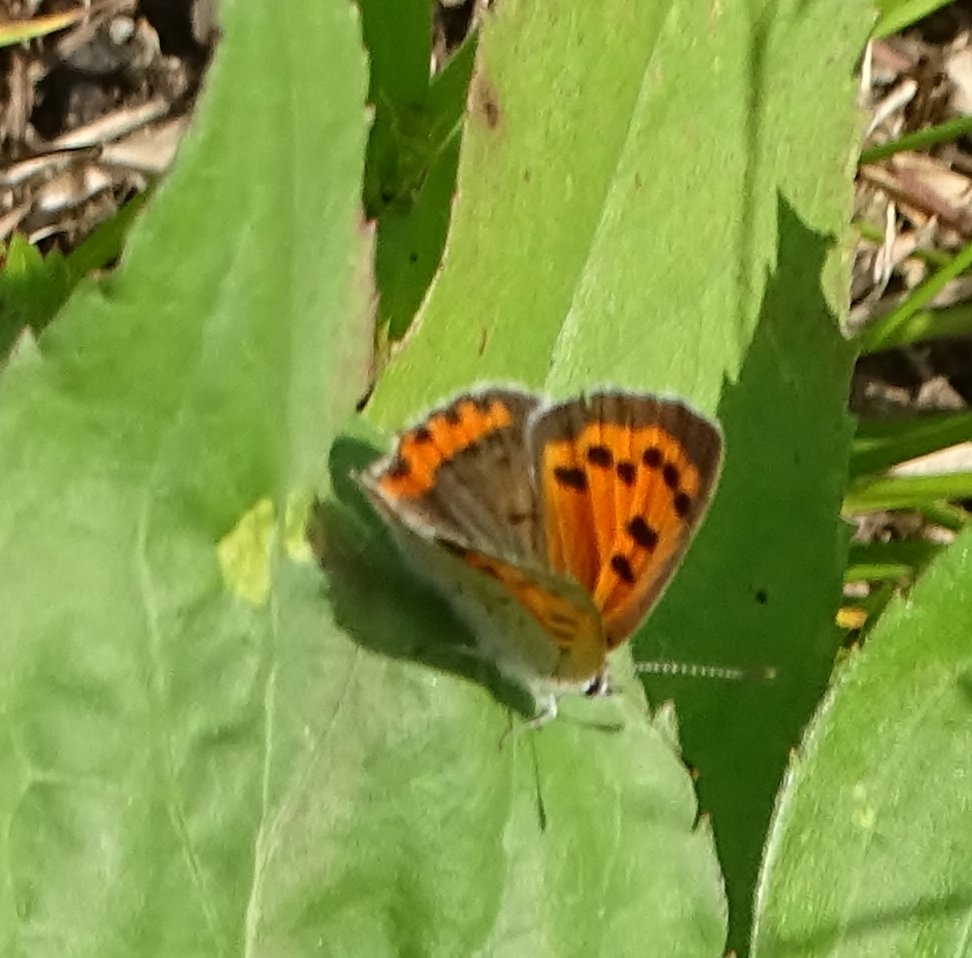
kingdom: Animalia
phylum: Arthropoda
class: Insecta
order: Lepidoptera
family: Lycaenidae
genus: Lycaena
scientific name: Lycaena phlaeas
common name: American Copper
